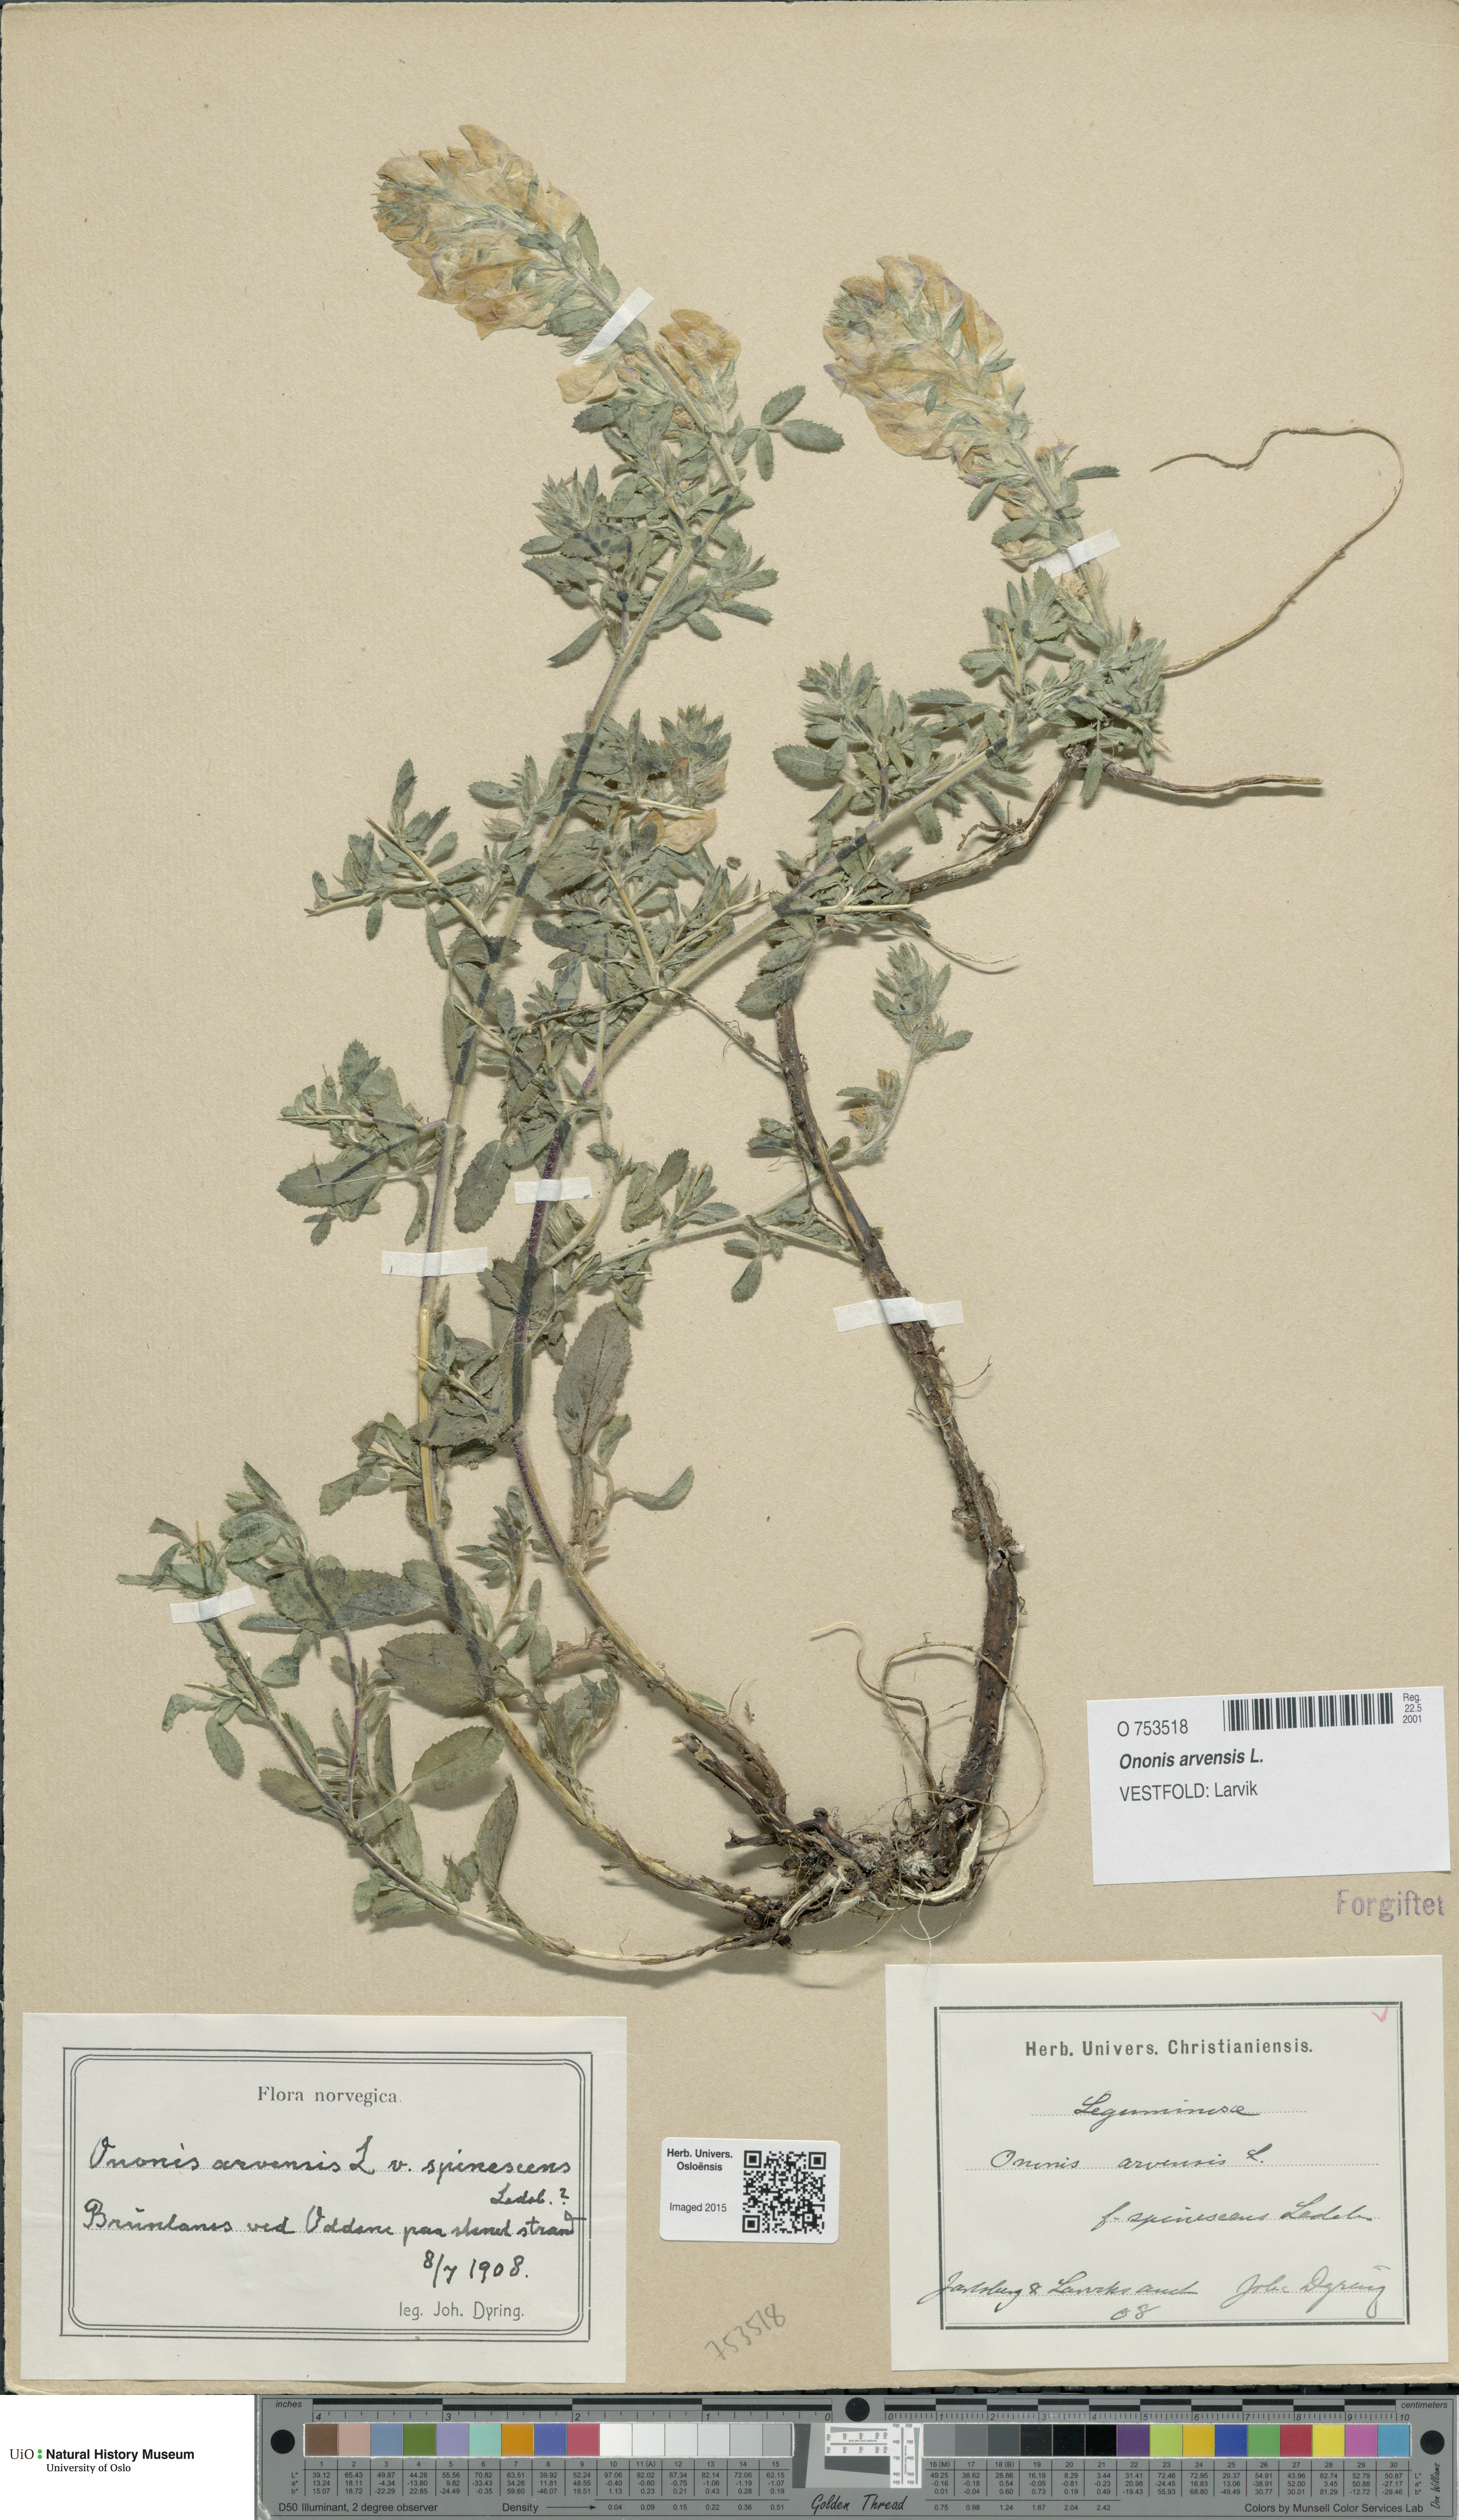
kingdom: Plantae
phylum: Tracheophyta
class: Magnoliopsida
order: Fabales
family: Fabaceae
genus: Ononis
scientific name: Ononis arvensis
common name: Field restharrow
